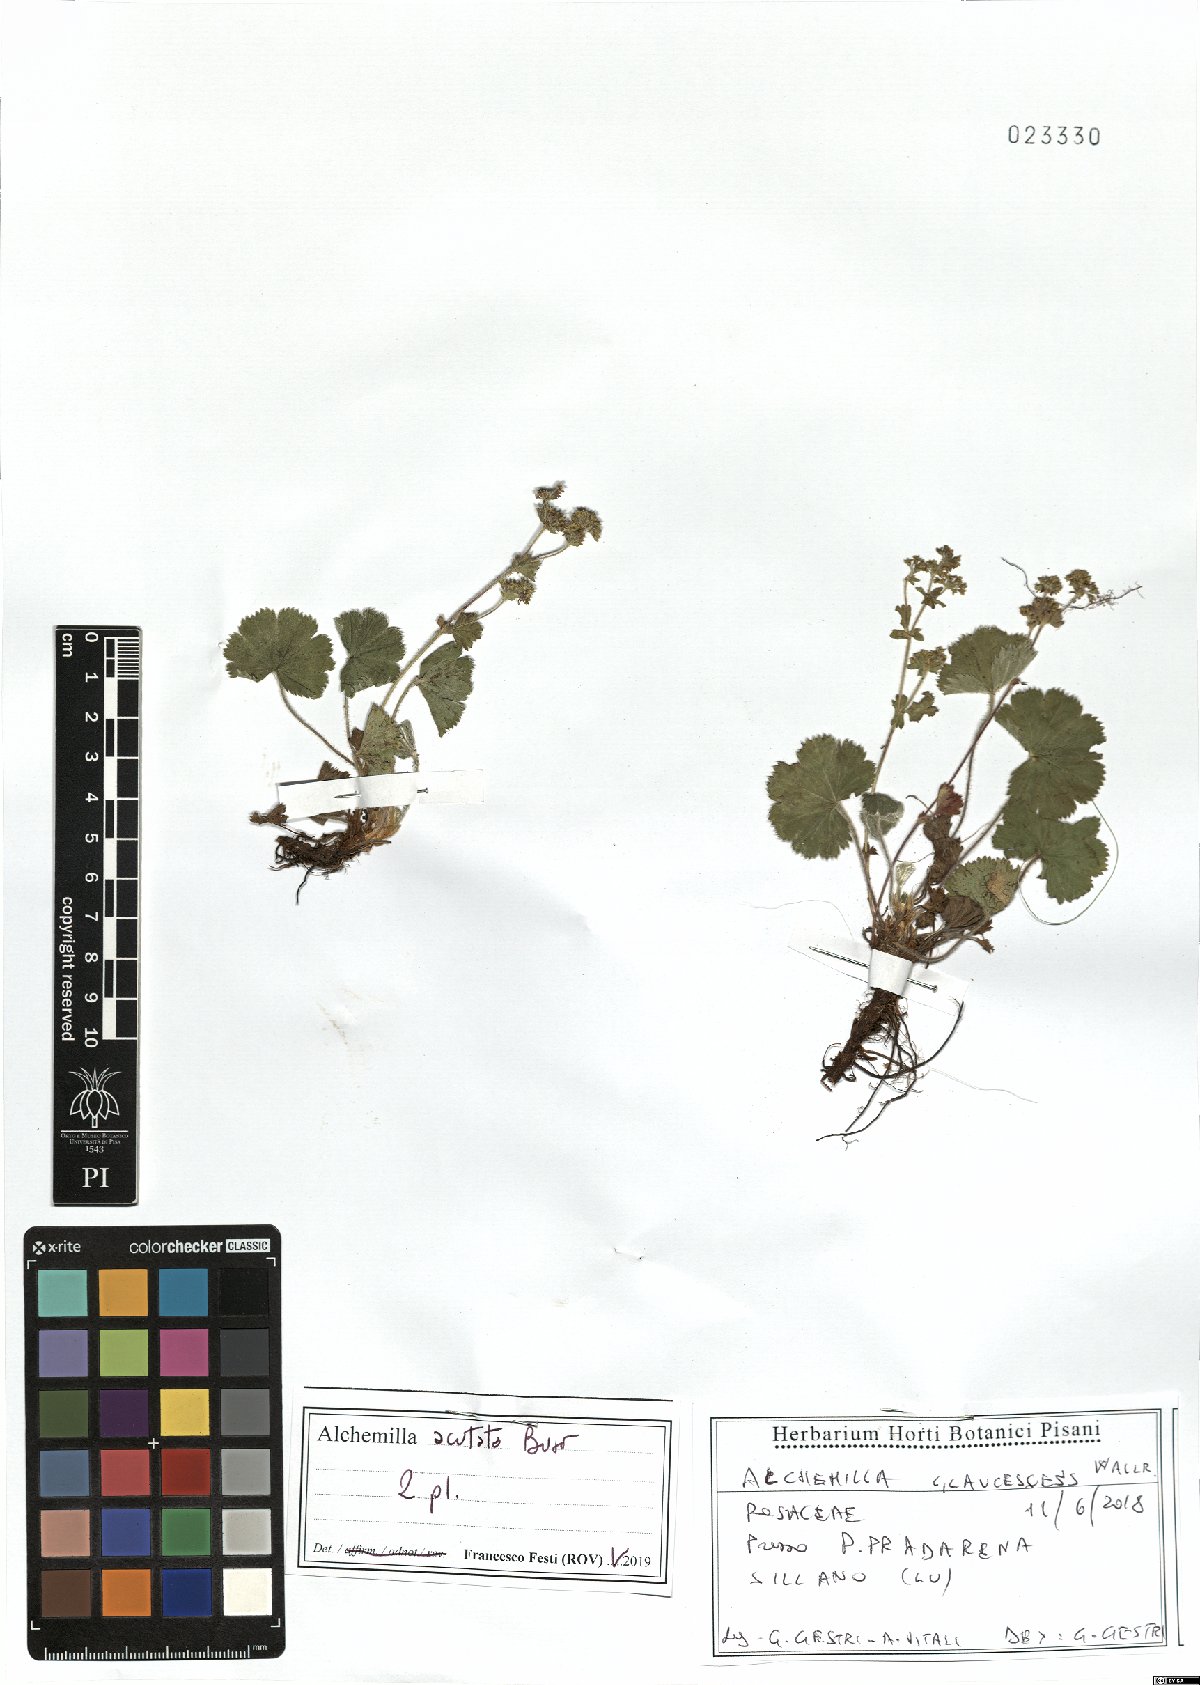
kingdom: Plantae
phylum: Tracheophyta
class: Magnoliopsida
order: Rosales
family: Rosaceae
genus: Alchemilla
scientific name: Alchemilla acutata
